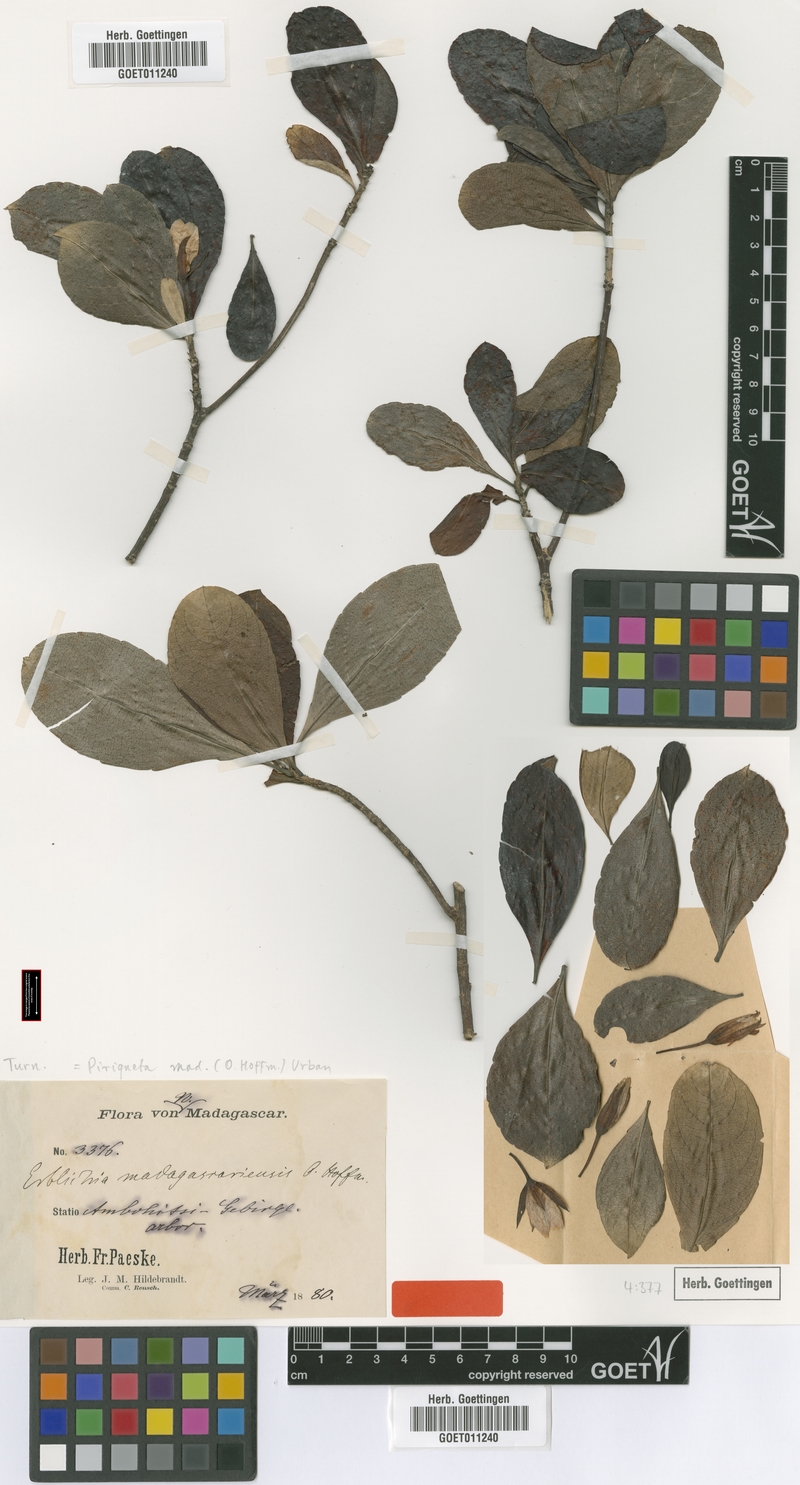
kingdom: Plantae
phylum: Tracheophyta
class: Magnoliopsida
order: Malpighiales
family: Turneraceae
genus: Arboa
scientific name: Arboa madagascariensis
